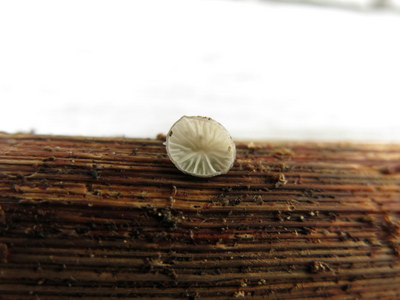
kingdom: Fungi
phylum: Basidiomycota
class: Agaricomycetes
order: Agaricales
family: Pleurotaceae
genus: Hohenbuehelia
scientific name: Hohenbuehelia cyphelliformis
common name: urte-filthat
